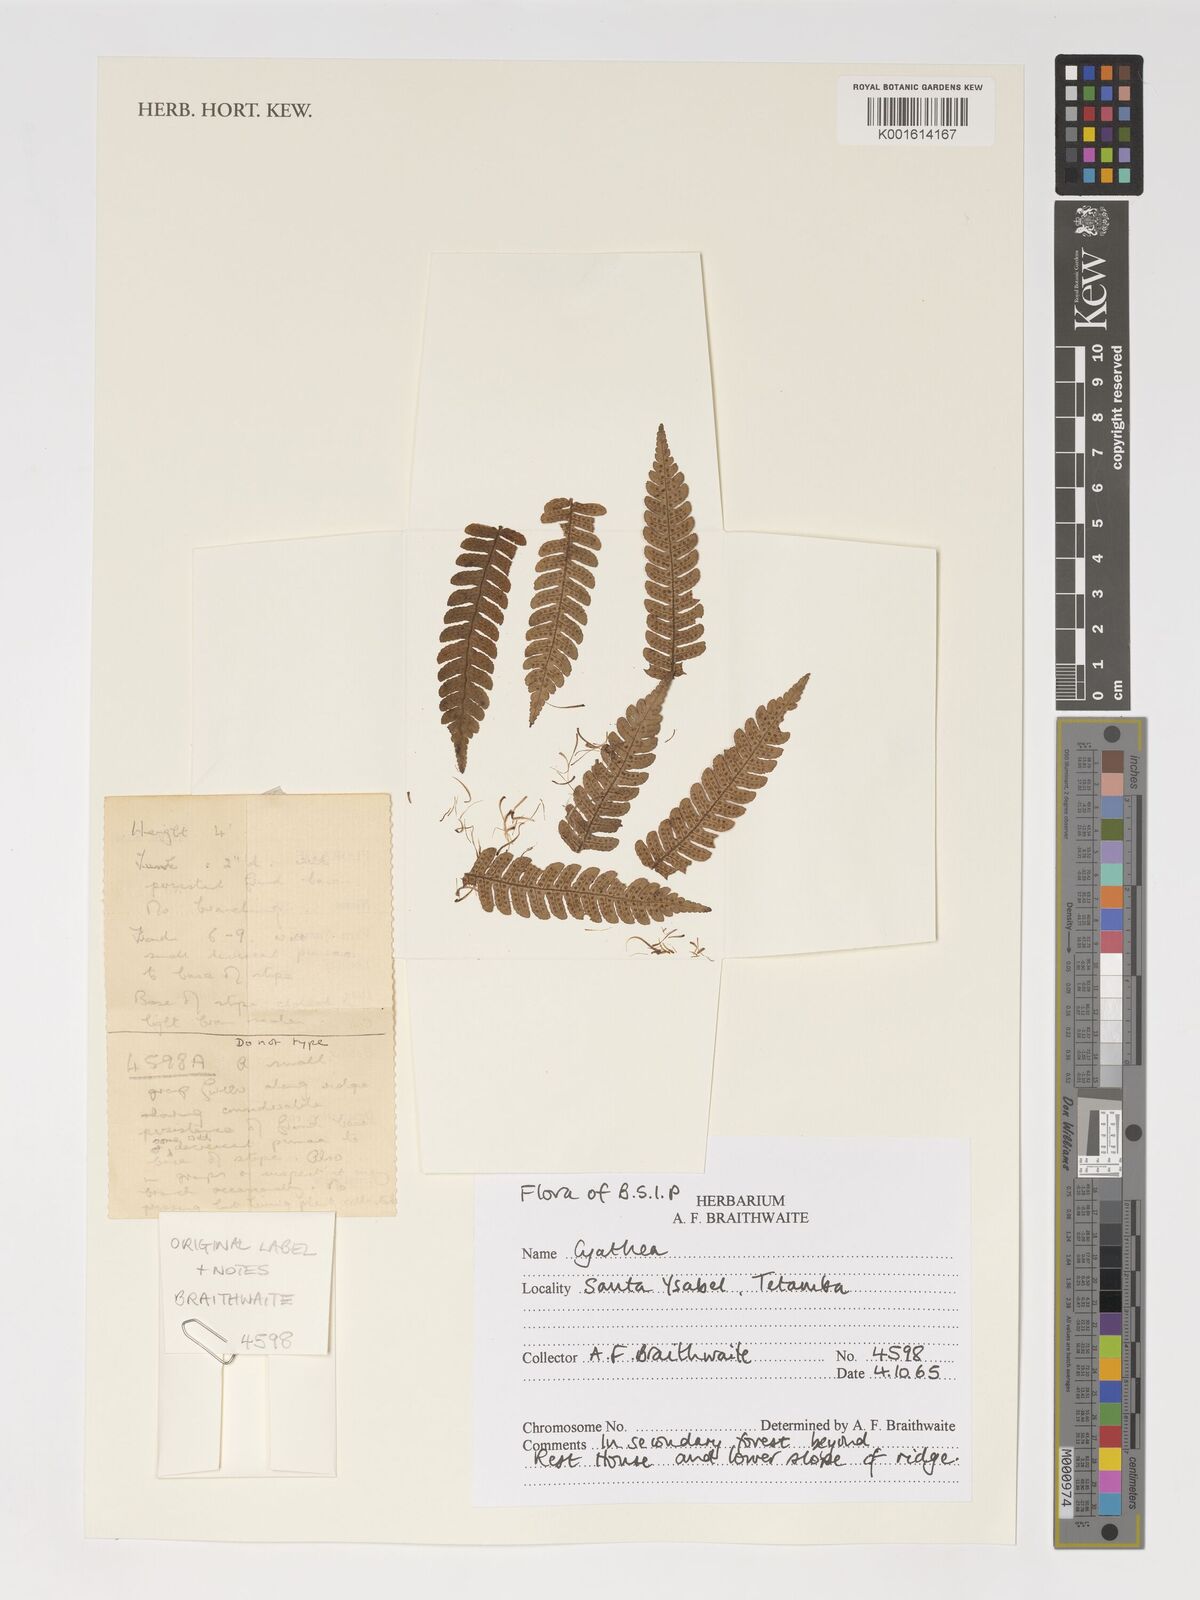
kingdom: Plantae
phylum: Tracheophyta
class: Polypodiopsida
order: Cyatheales
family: Cyatheaceae
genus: Cyathea
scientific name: Cyathea
